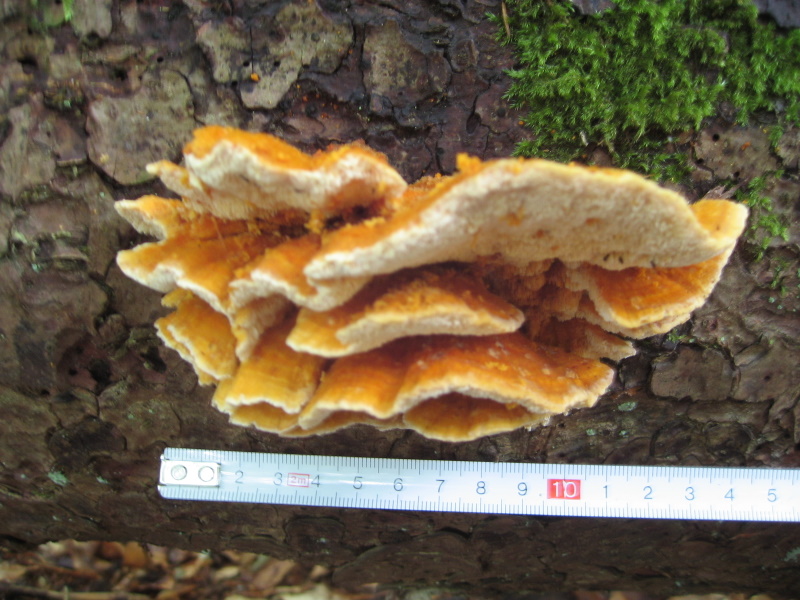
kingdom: Fungi
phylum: Basidiomycota
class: Agaricomycetes
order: Polyporales
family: Pycnoporellaceae
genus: Pycnoporellus
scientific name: Pycnoporellus fulgens
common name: flammeporesvamp
